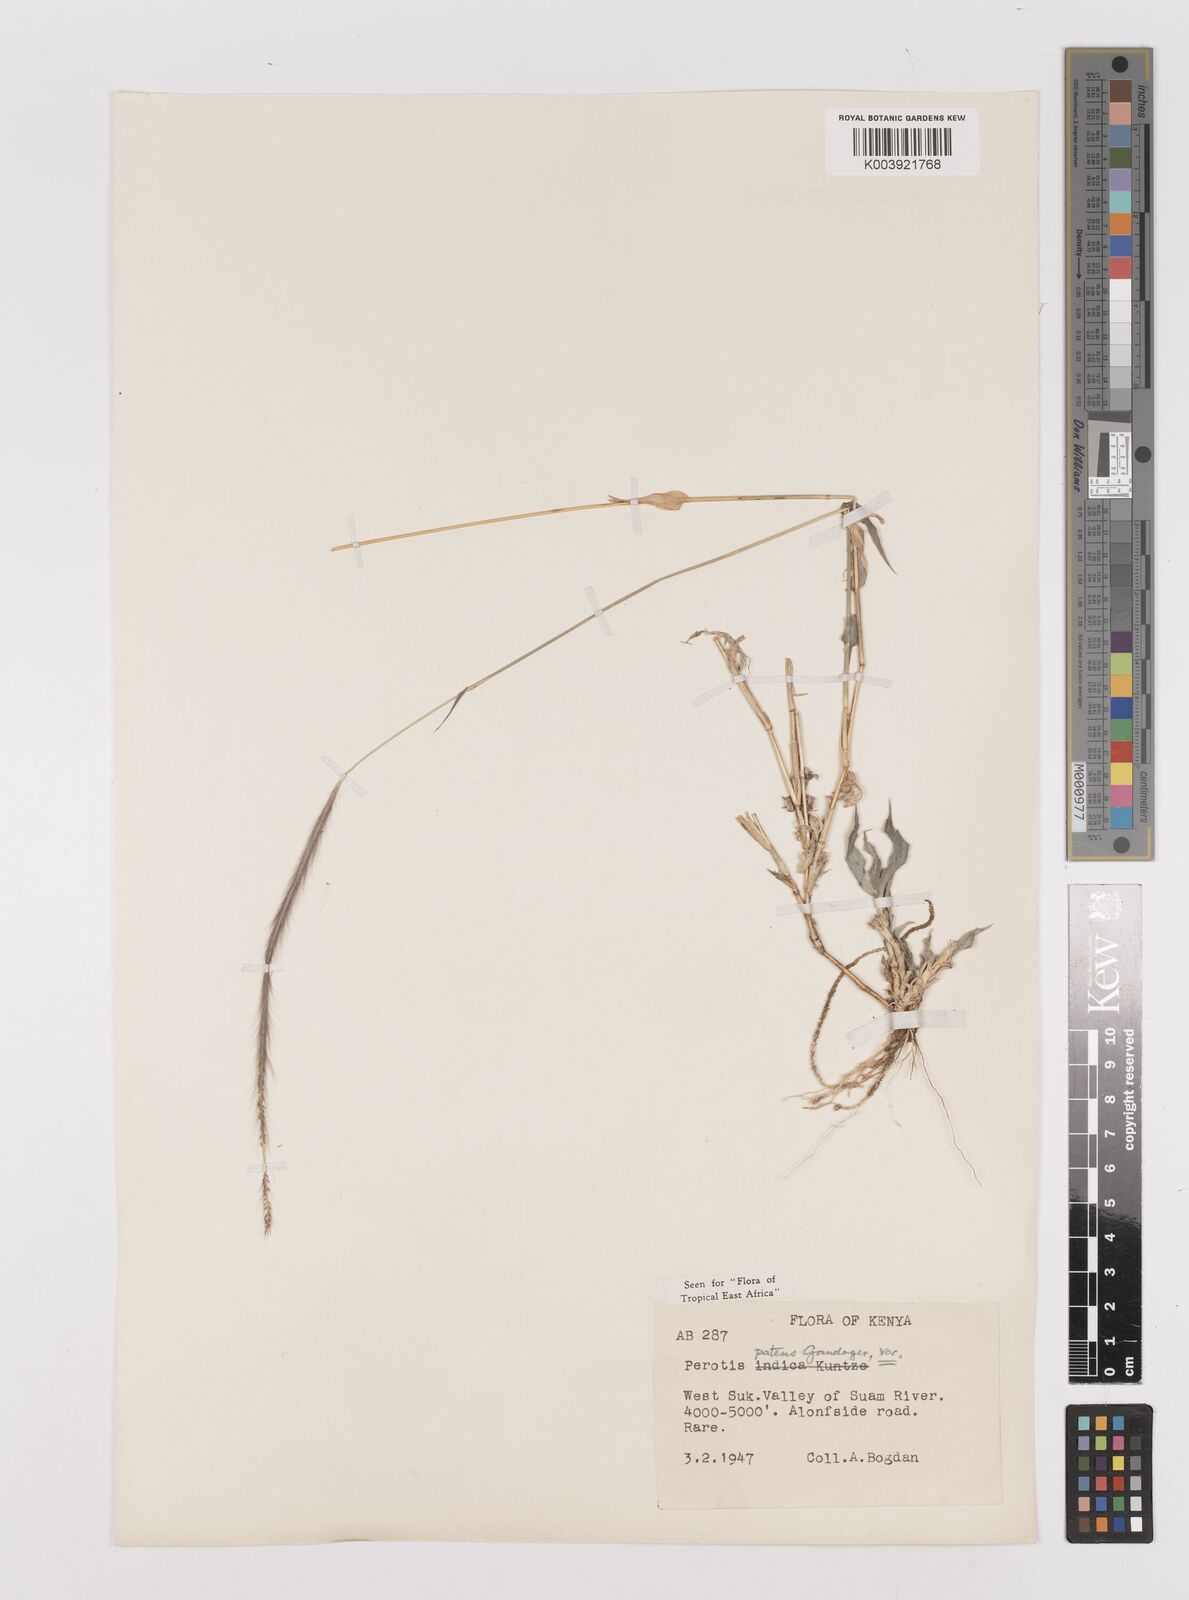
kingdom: Plantae
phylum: Tracheophyta
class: Liliopsida
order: Poales
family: Poaceae
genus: Perotis
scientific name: Perotis patens
